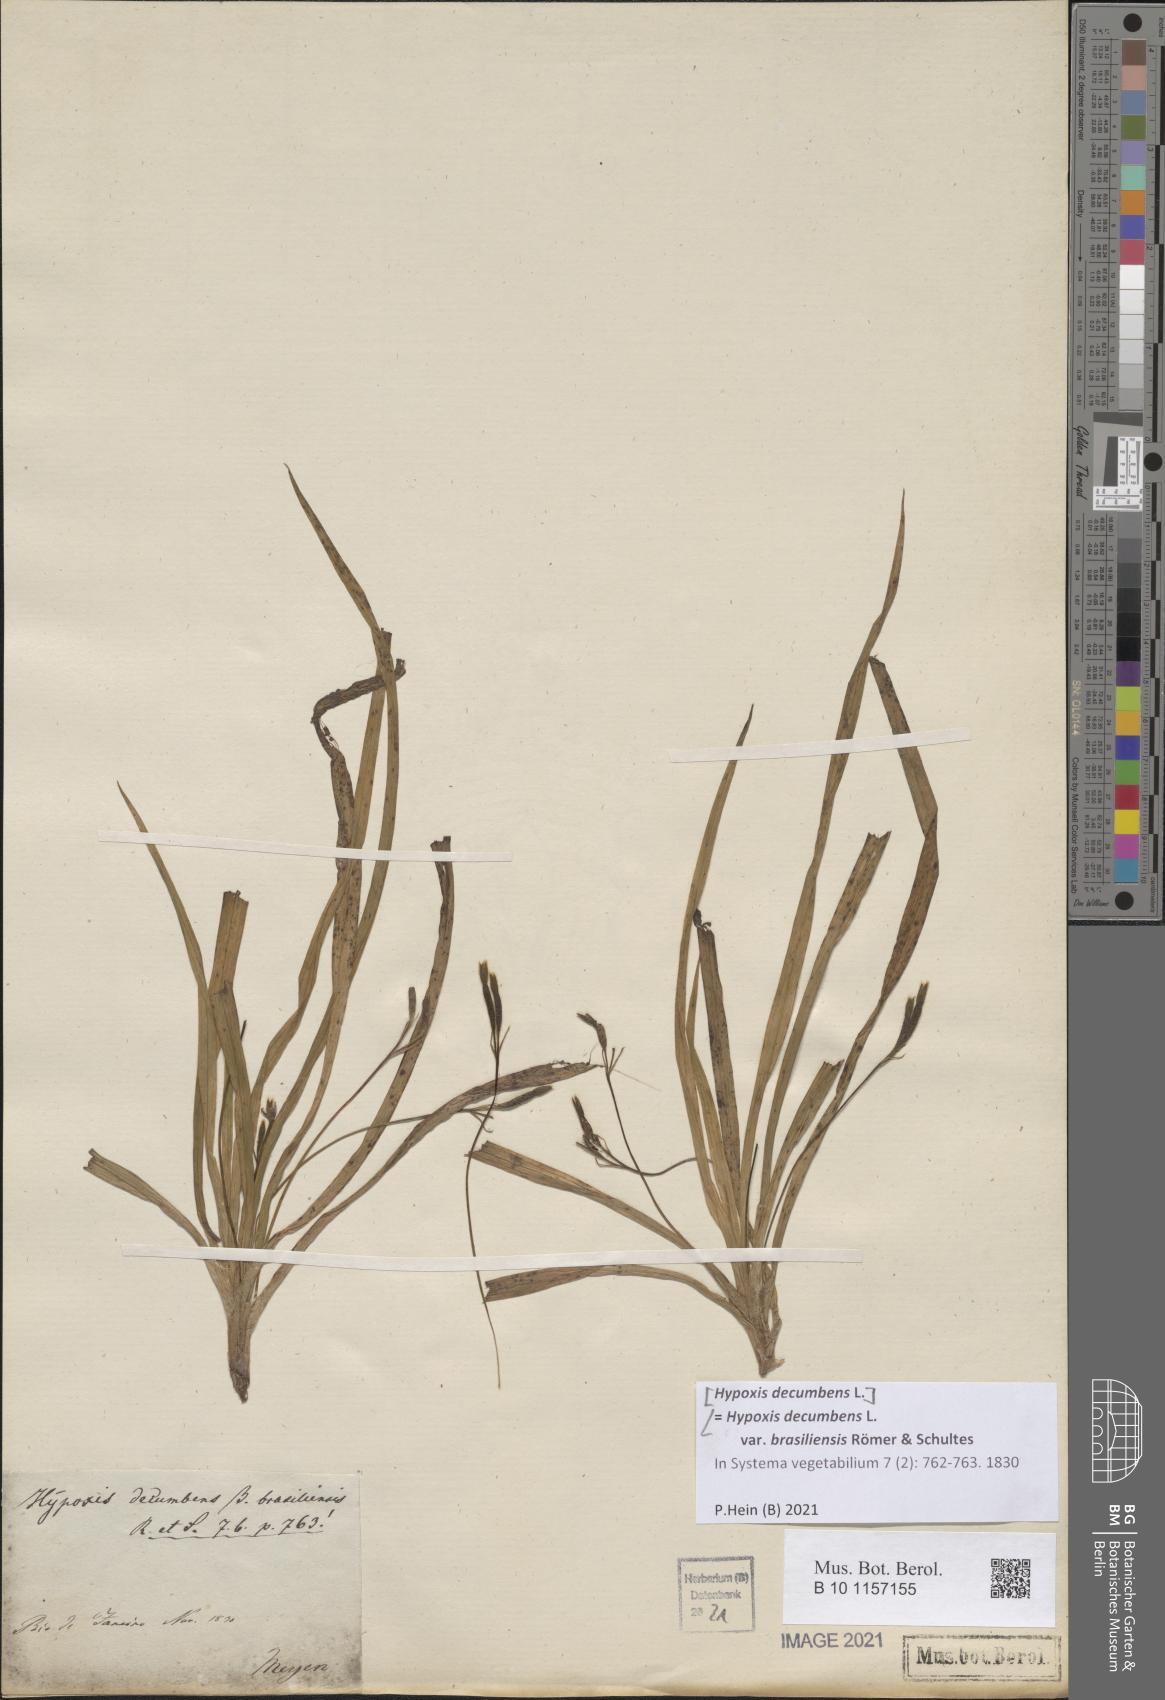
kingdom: Plantae
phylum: Tracheophyta
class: Liliopsida
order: Asparagales
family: Hypoxidaceae
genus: Hypoxis
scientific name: Hypoxis decumbens
